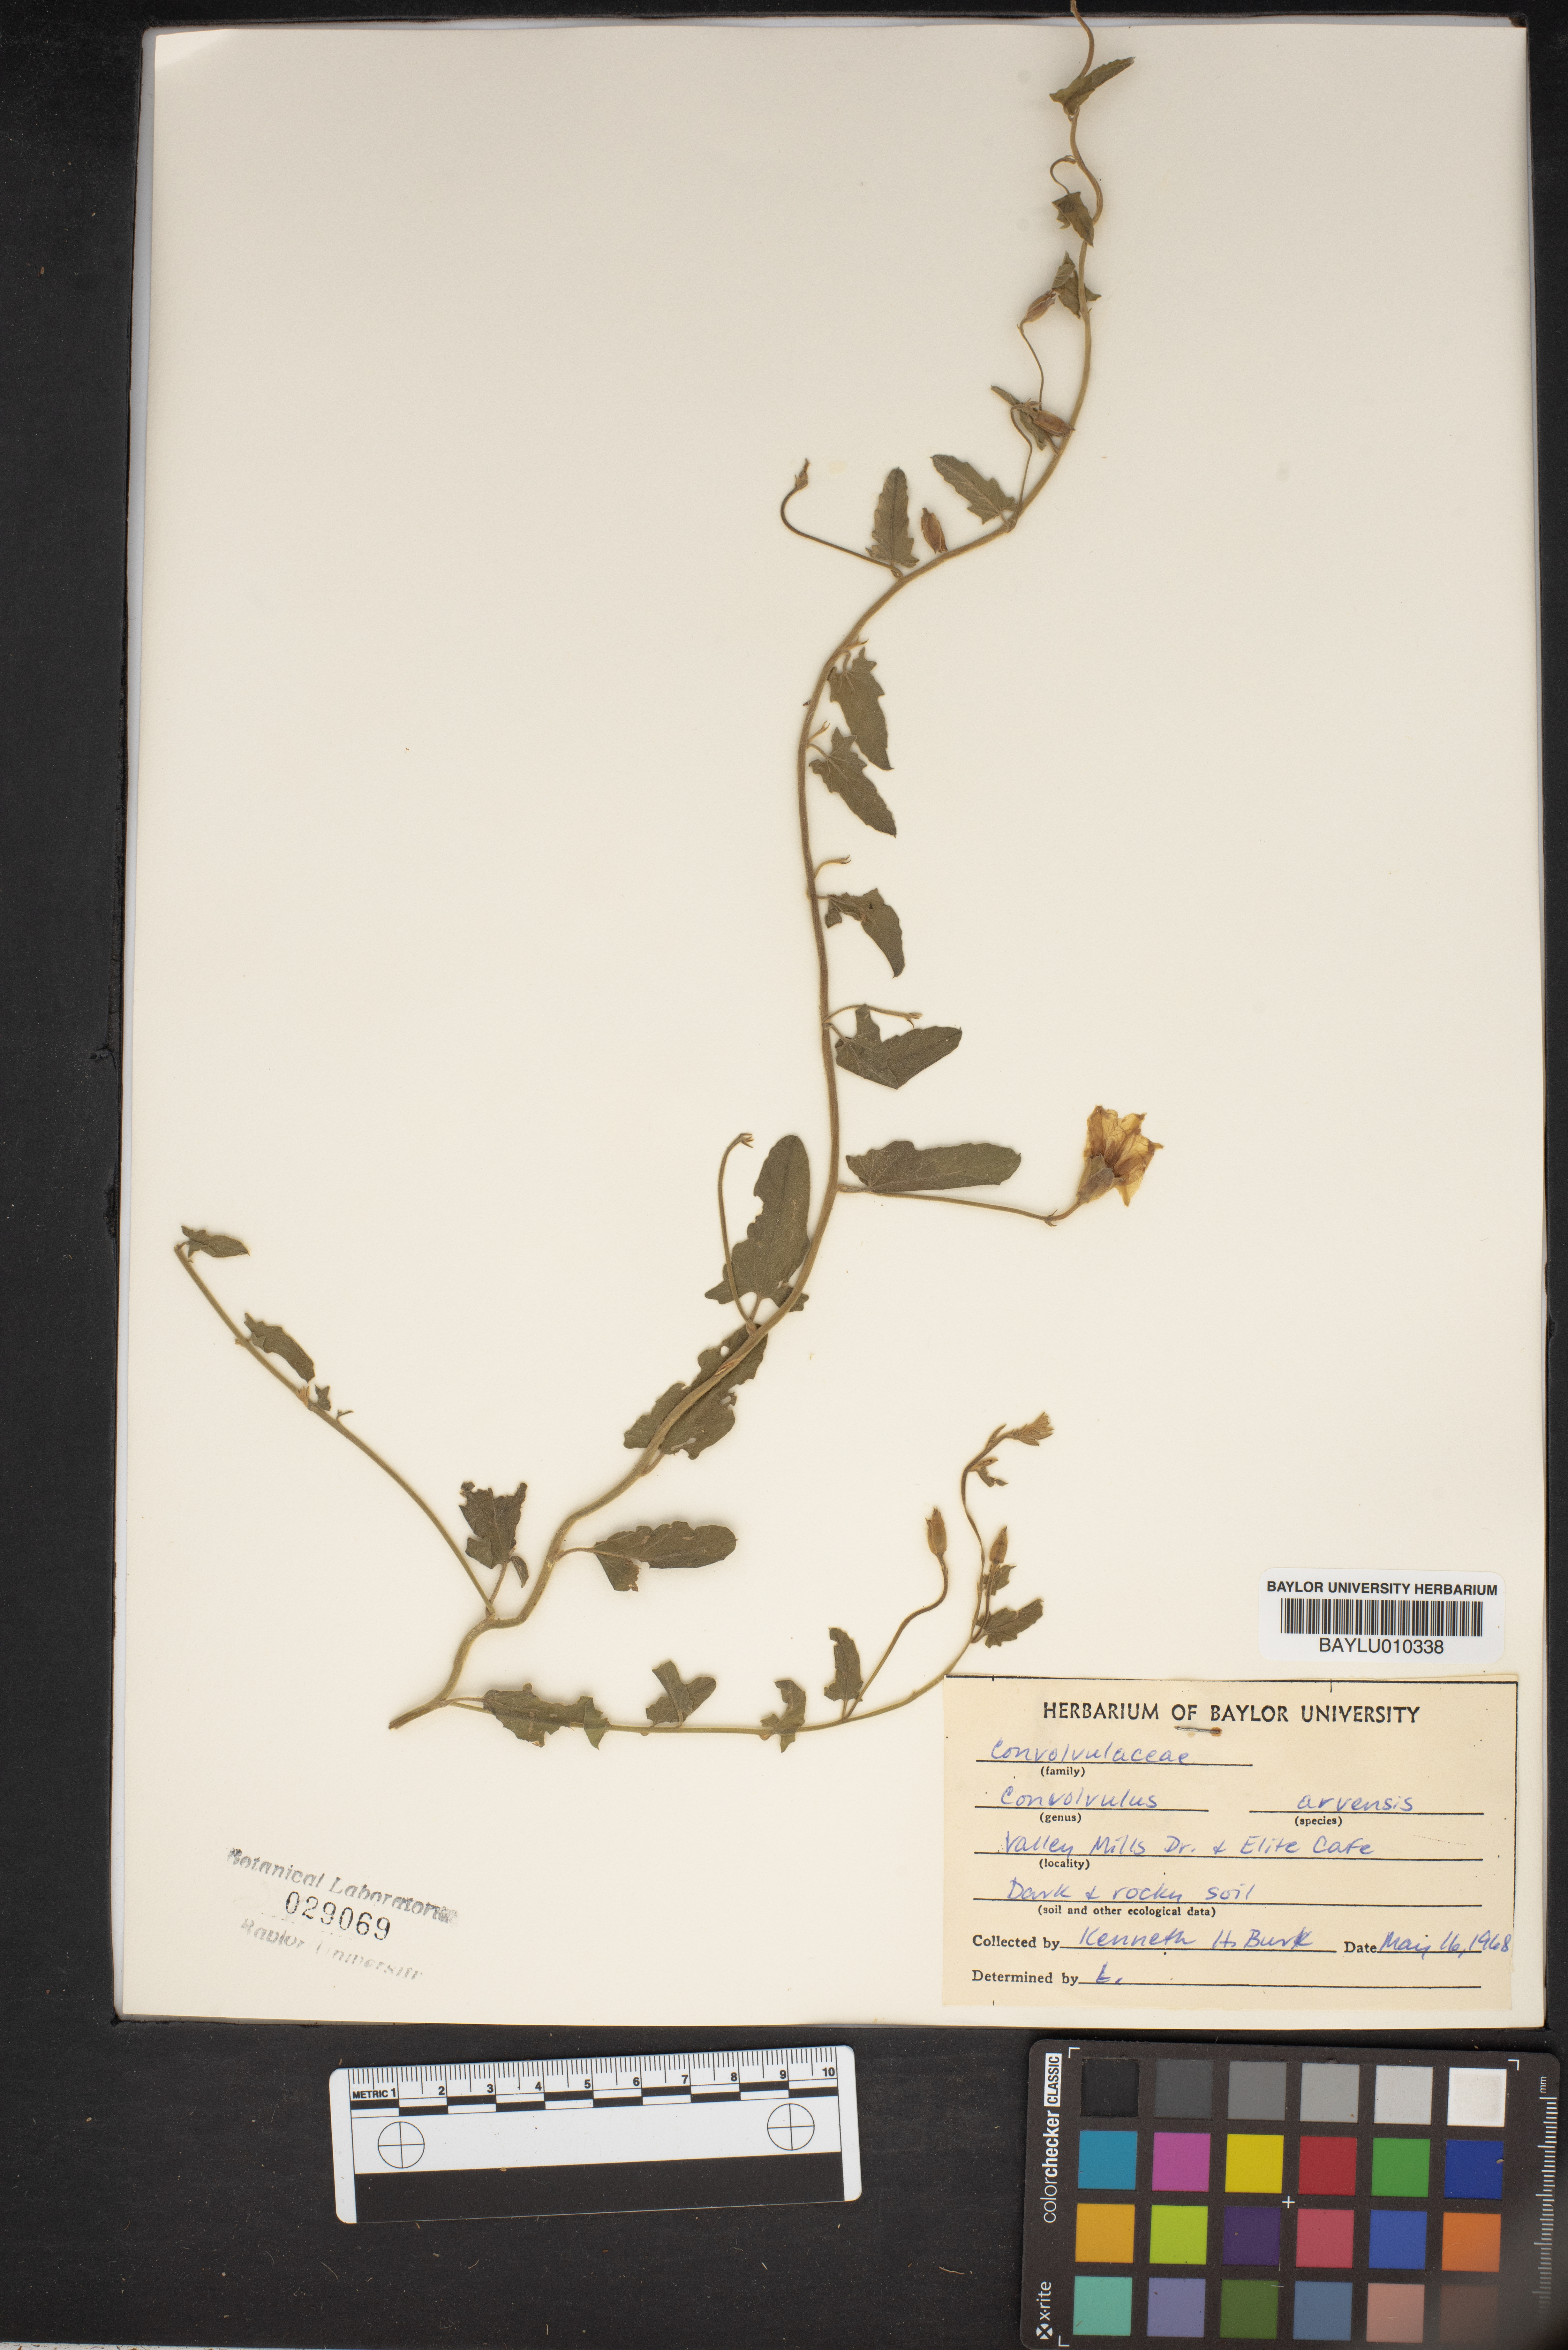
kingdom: Plantae
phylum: Tracheophyta
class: Magnoliopsida
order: Solanales
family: Convolvulaceae
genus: Convolvulus
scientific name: Convolvulus arvensis
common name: Field bindweed
